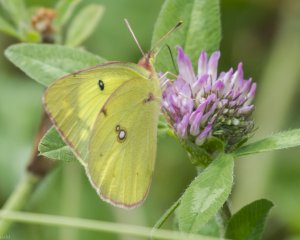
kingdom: Animalia
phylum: Arthropoda
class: Insecta
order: Lepidoptera
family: Pieridae
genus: Colias
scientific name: Colias philodice
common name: Clouded Sulphur
